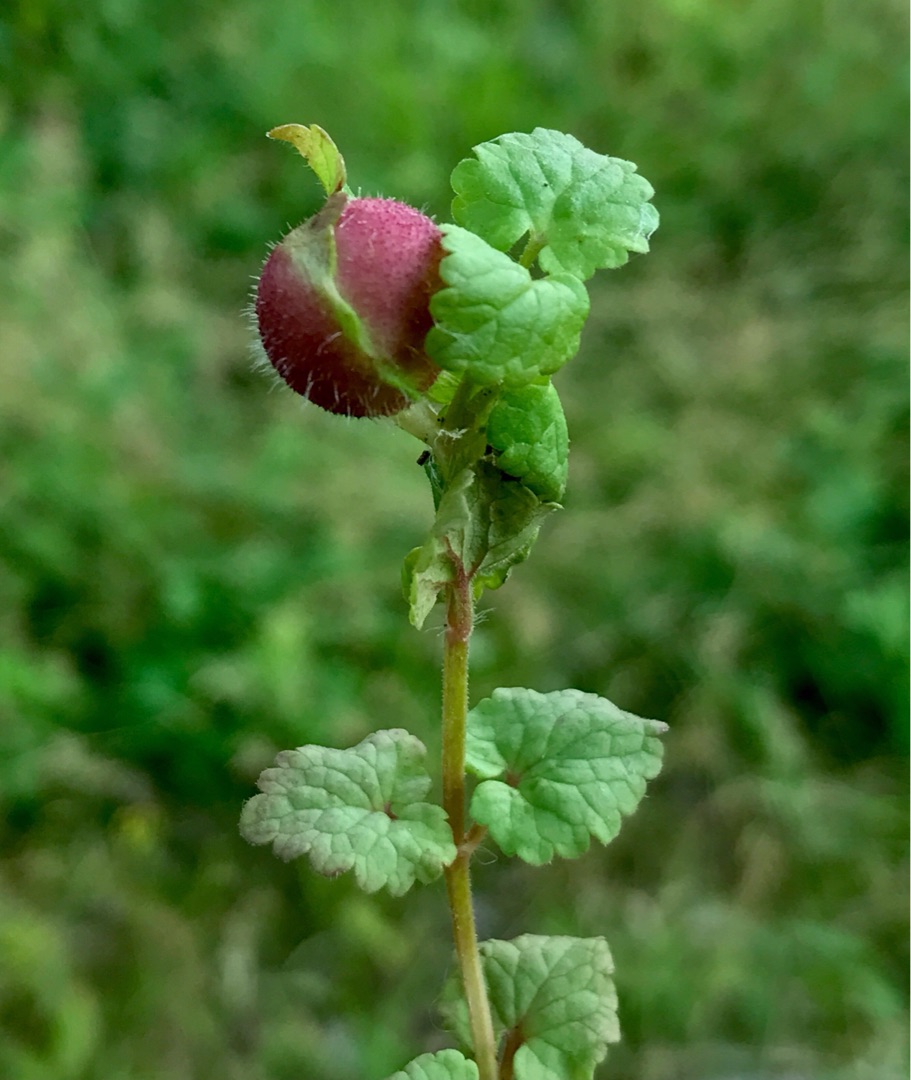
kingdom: Animalia
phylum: Arthropoda
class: Insecta
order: Hymenoptera
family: Cynipidae
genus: Liposthenes
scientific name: Liposthenes glechomae
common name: Korsknapgalhveps
